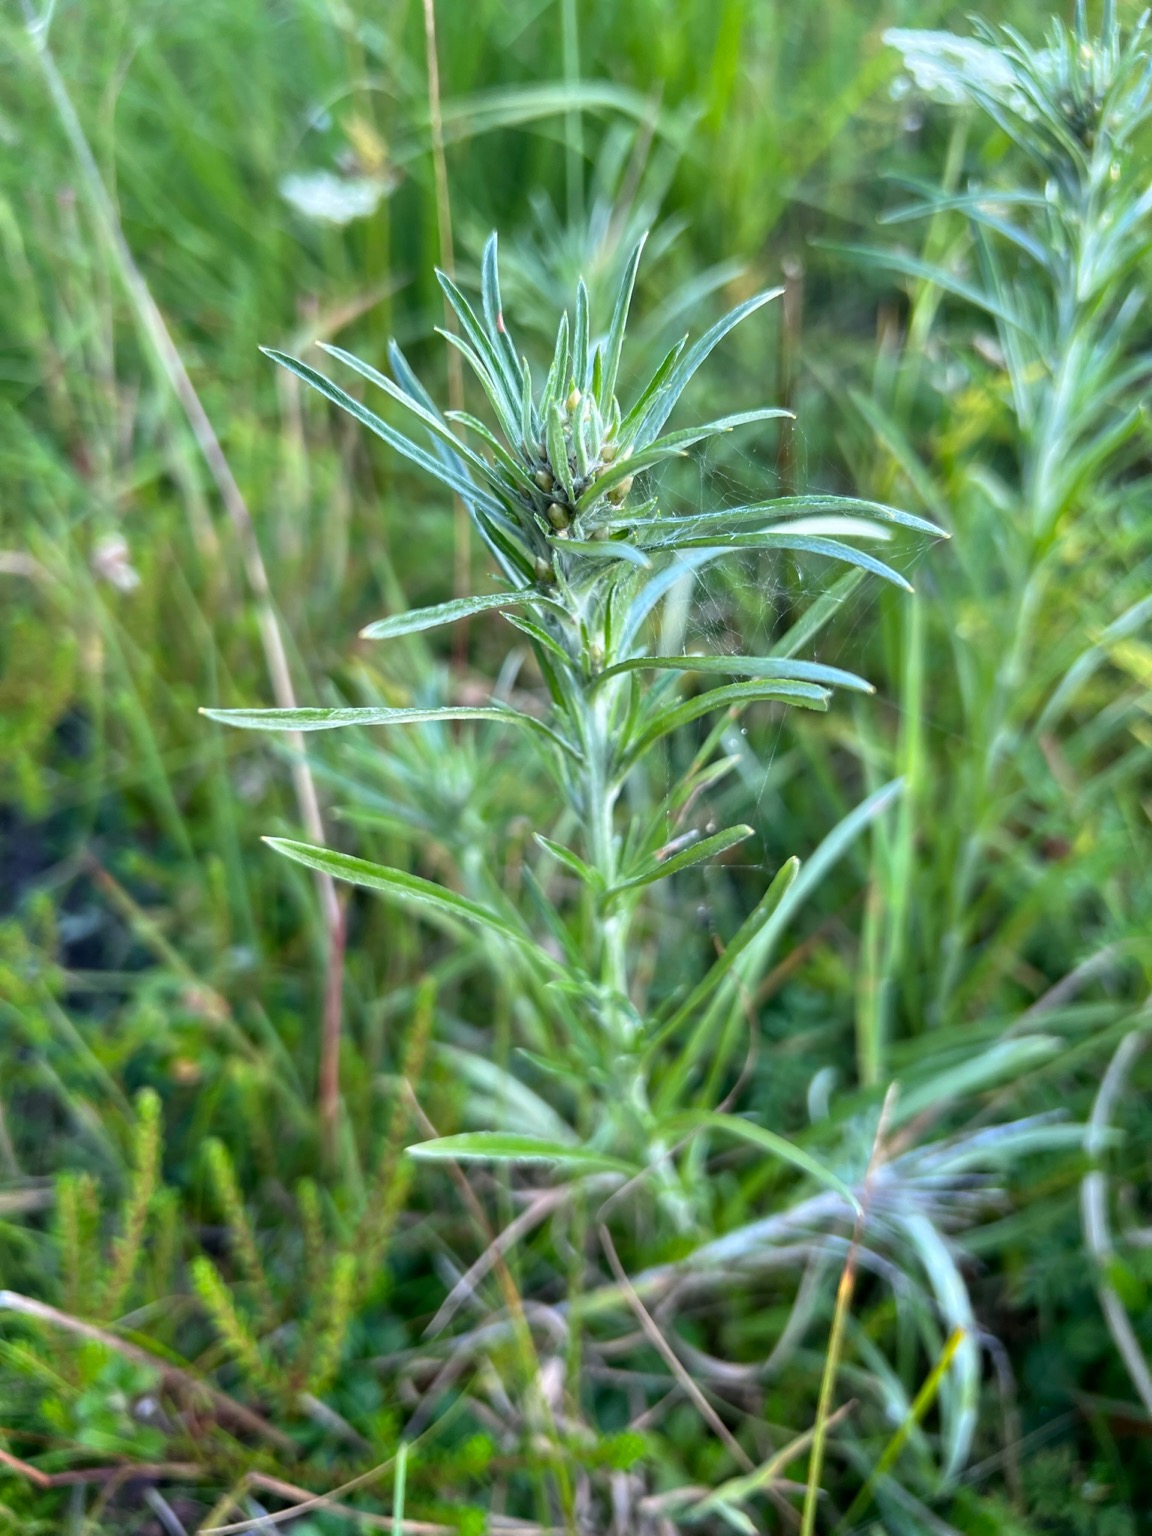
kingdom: Plantae
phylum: Tracheophyta
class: Magnoliopsida
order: Asterales
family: Asteraceae
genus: Omalotheca
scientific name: Omalotheca sylvatica
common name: Rank evighedsblomst
